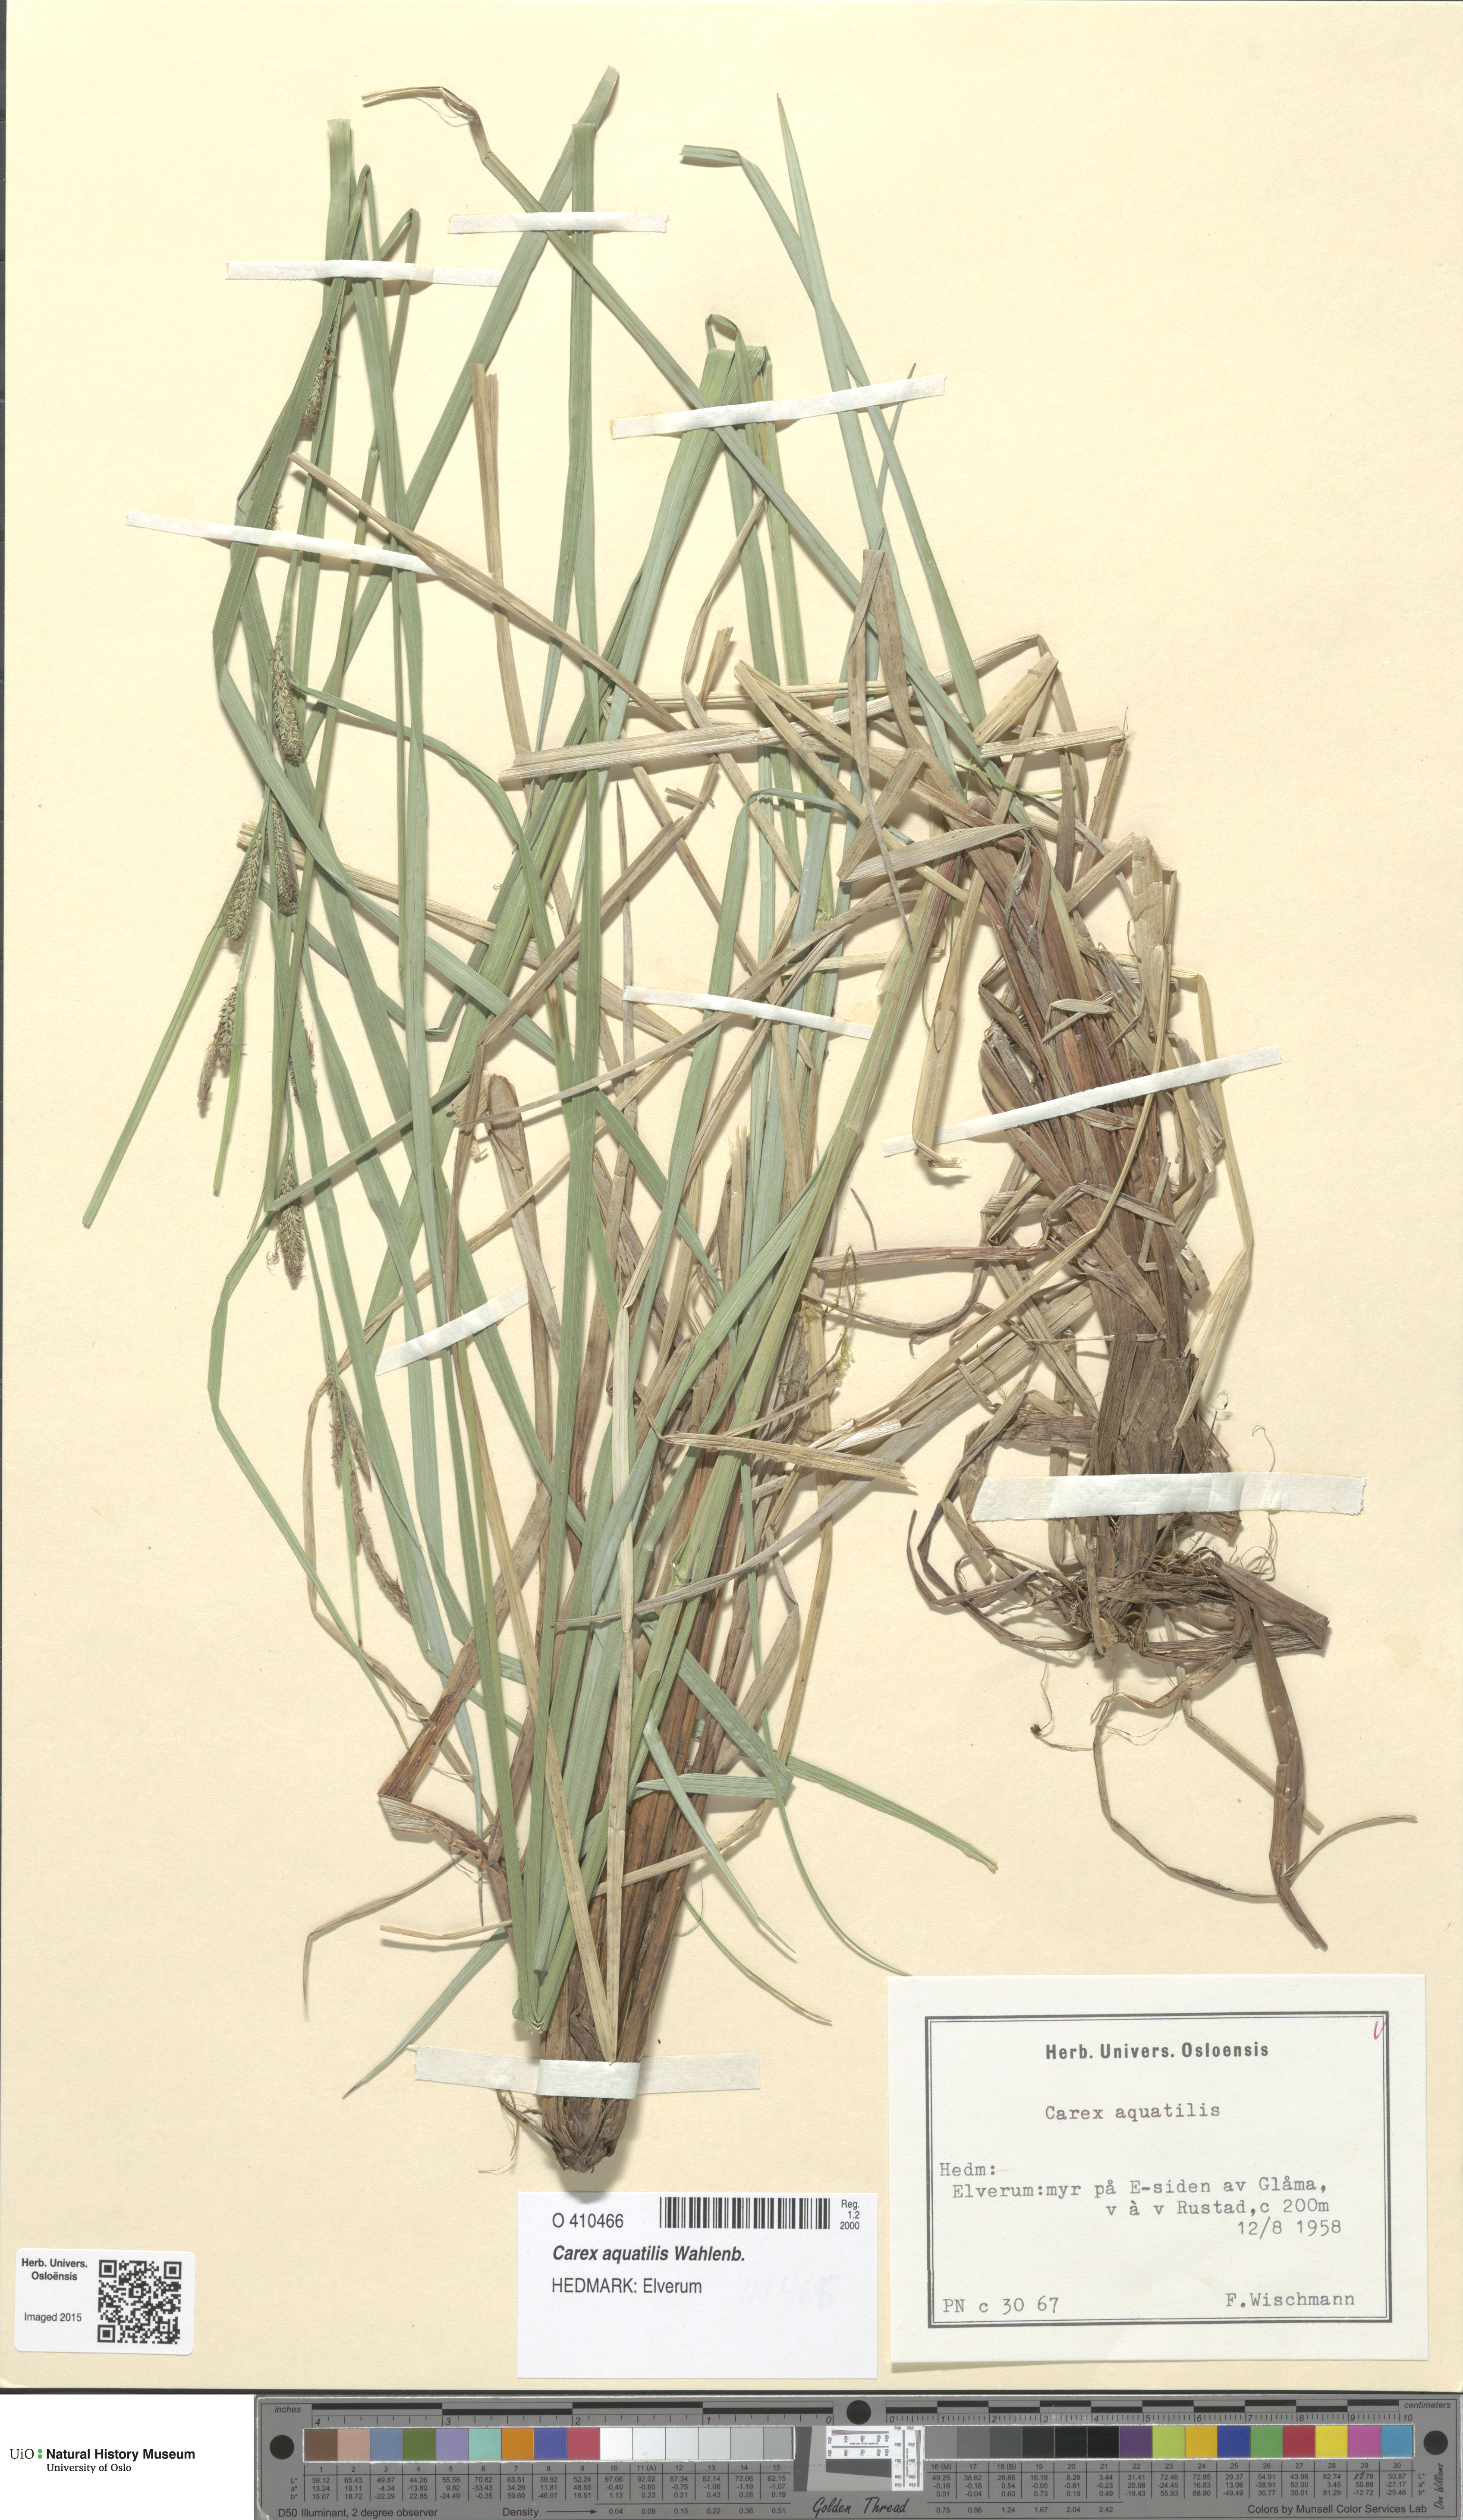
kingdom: Plantae
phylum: Tracheophyta
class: Liliopsida
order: Poales
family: Cyperaceae
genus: Carex
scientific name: Carex aquatilis
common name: Water sedge
